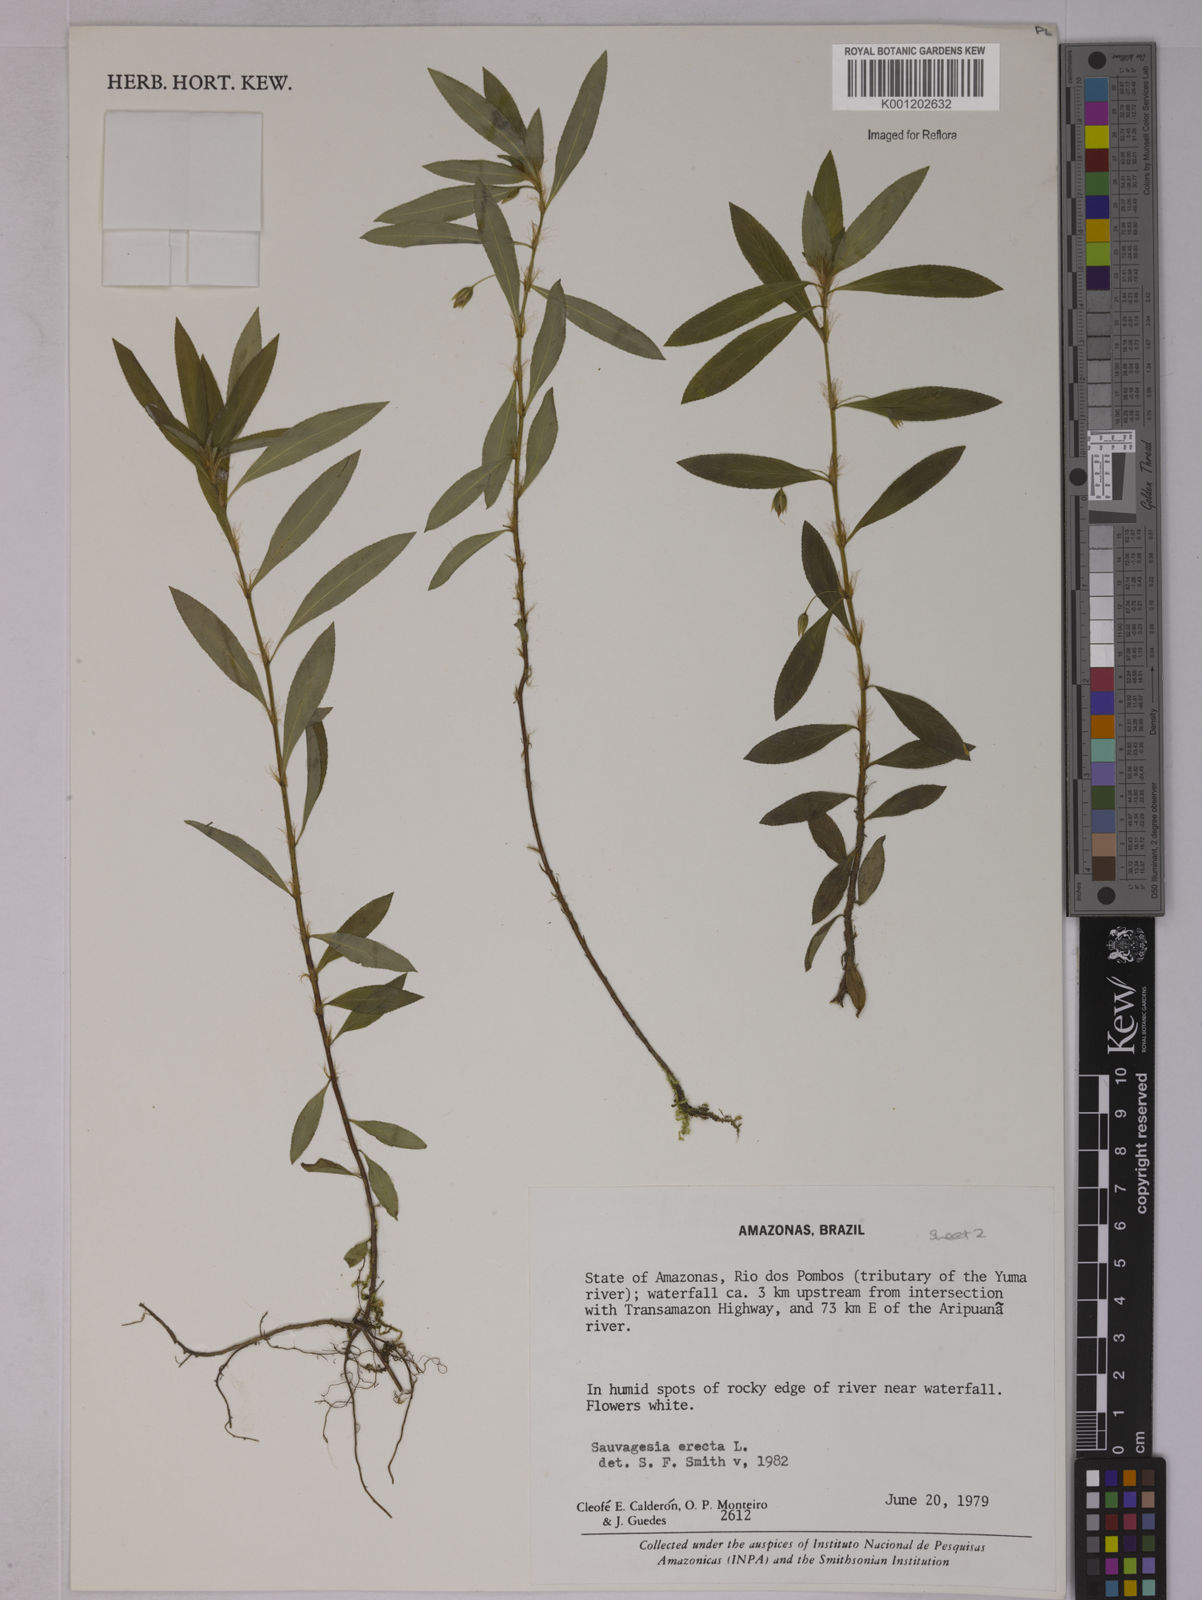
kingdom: Plantae
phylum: Tracheophyta
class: Magnoliopsida
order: Malpighiales
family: Ochnaceae
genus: Sauvagesia
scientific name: Sauvagesia erecta
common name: Creole tea
